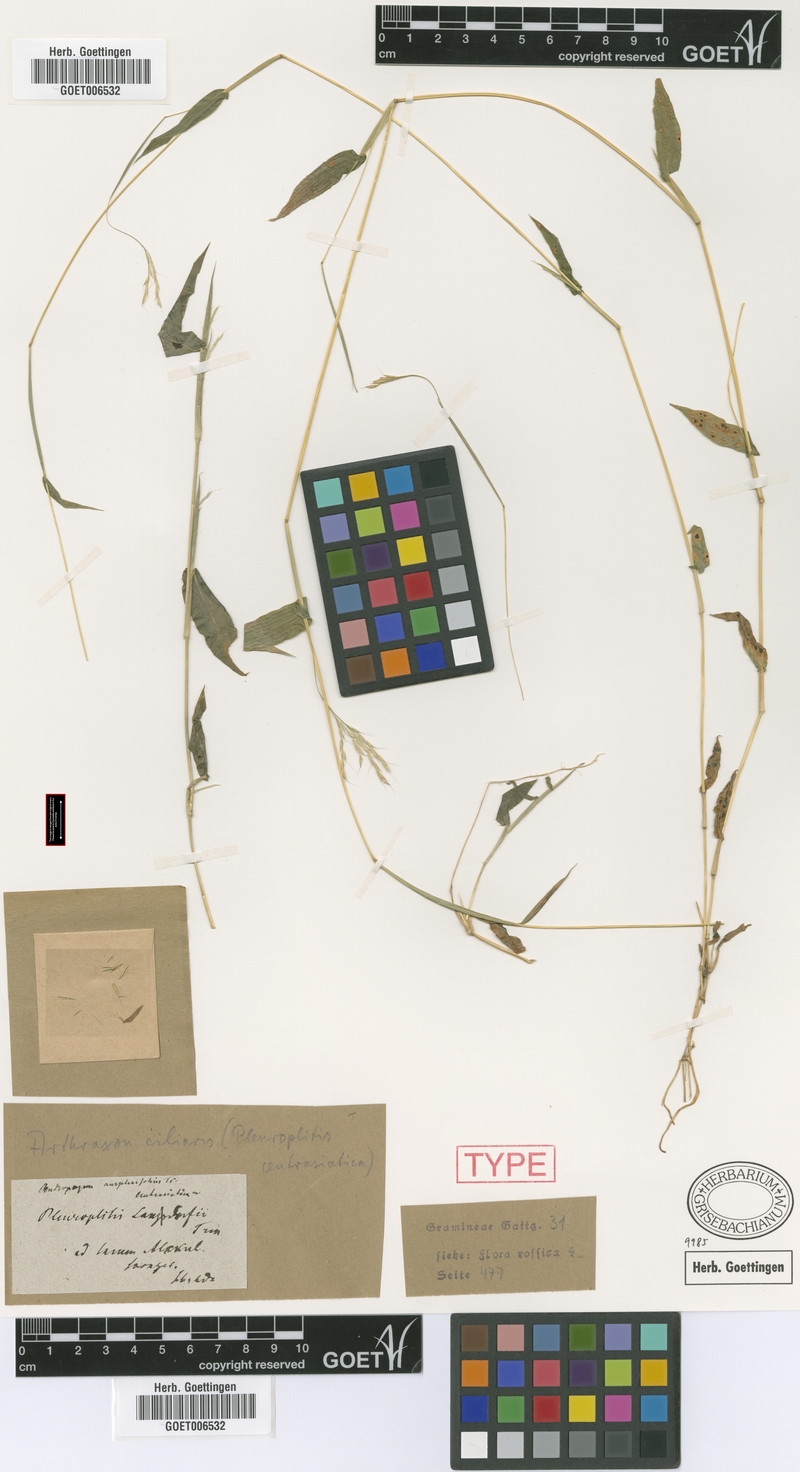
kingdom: Plantae
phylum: Tracheophyta
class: Liliopsida
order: Poales
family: Poaceae
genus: Arthraxon
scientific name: Arthraxon hispidus
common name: Small carpgrass
